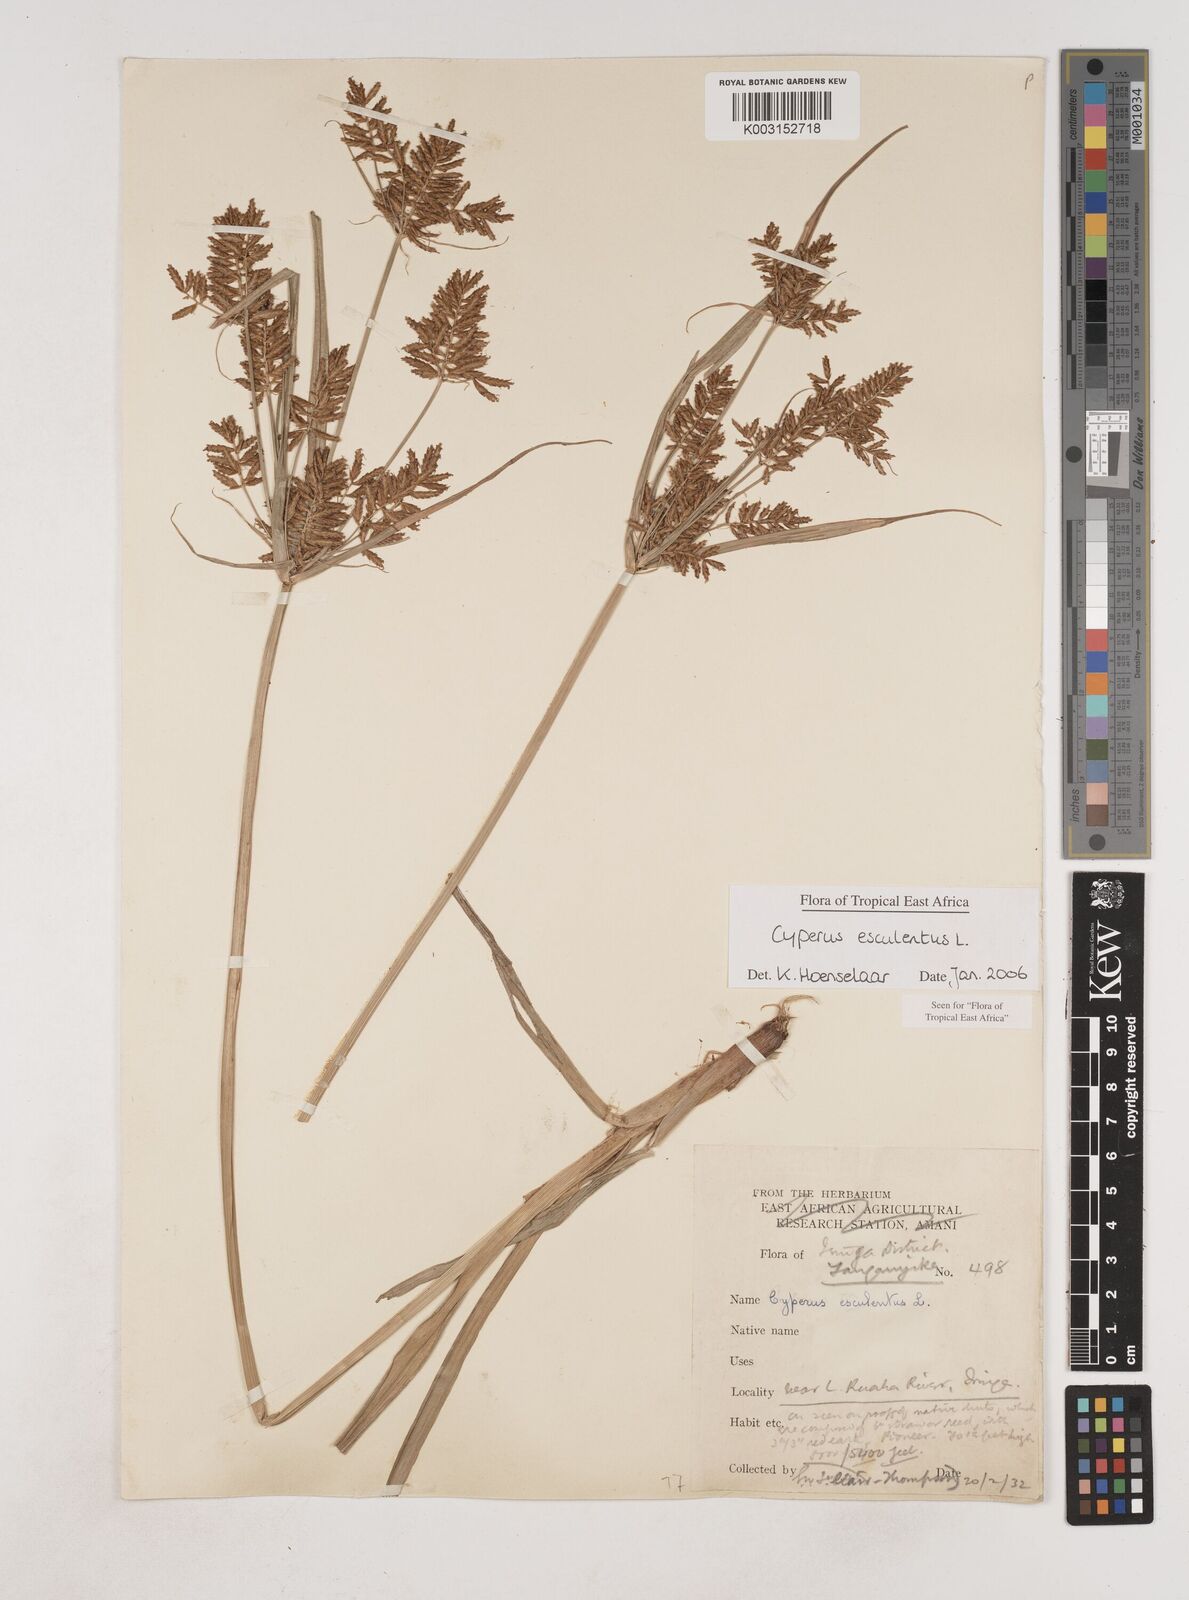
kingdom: Plantae
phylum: Tracheophyta
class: Liliopsida
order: Poales
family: Cyperaceae
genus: Cyperus
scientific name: Cyperus esculentus
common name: Yellow nutsedge
